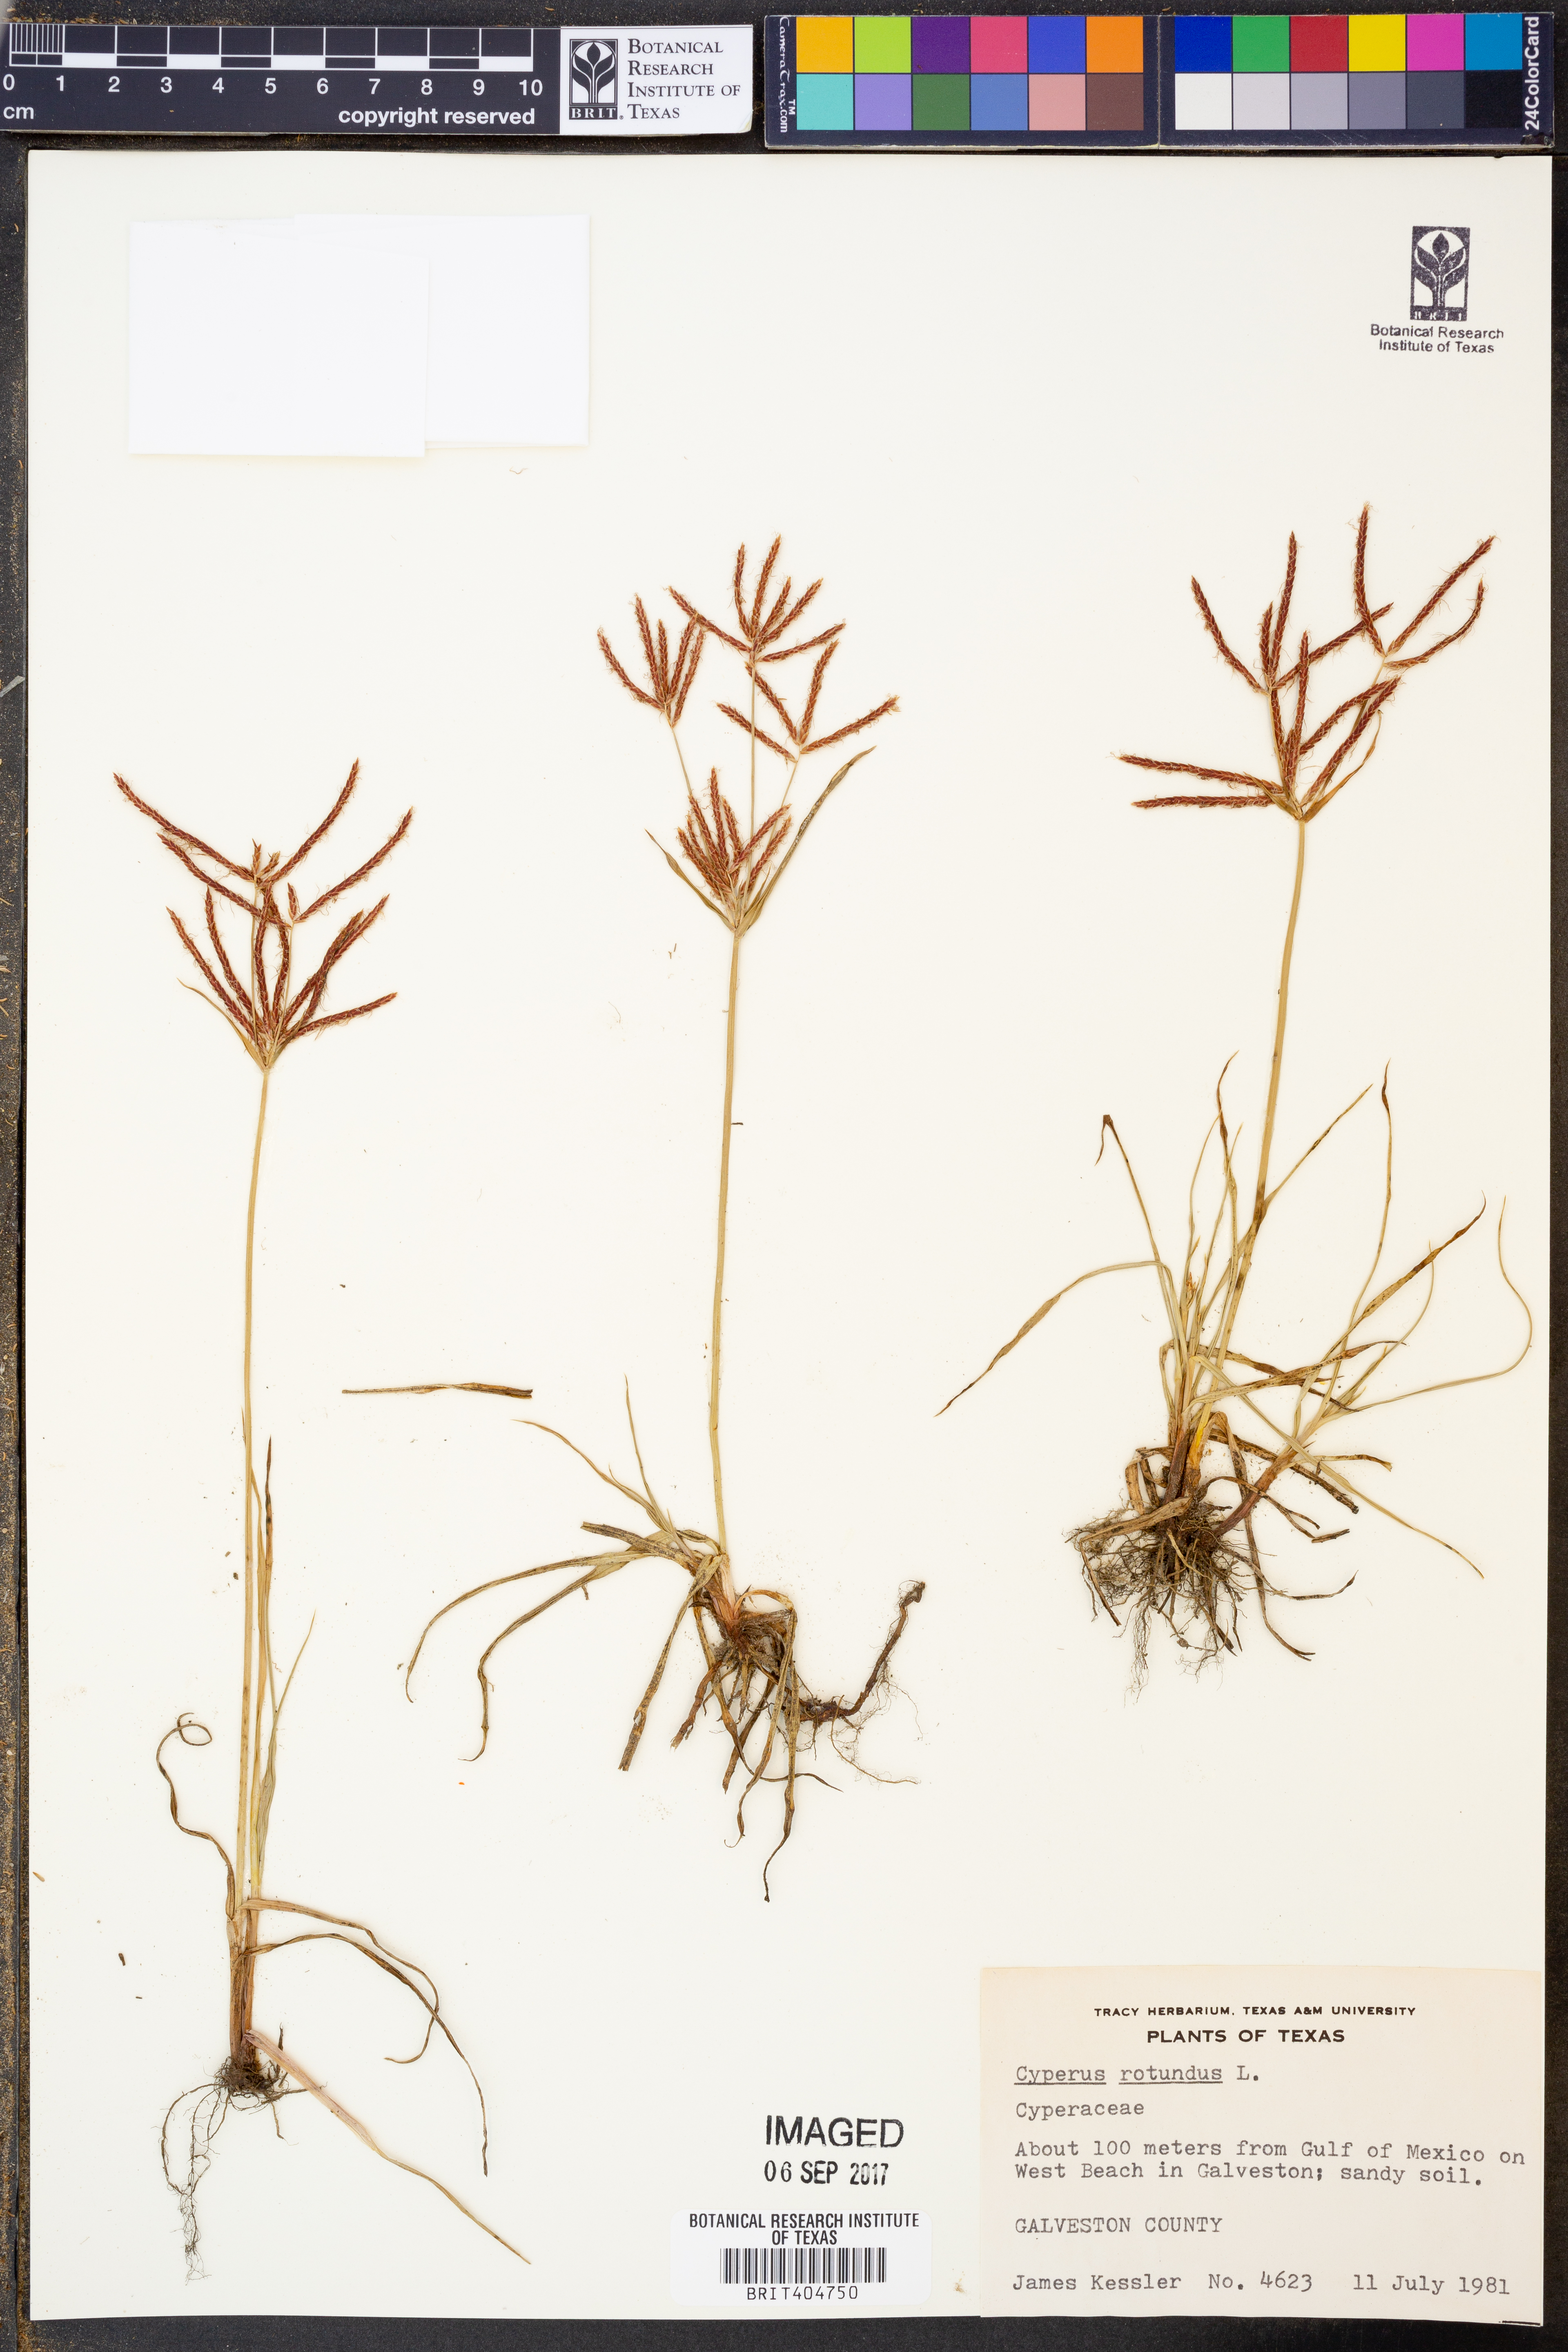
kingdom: Plantae
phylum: Tracheophyta
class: Liliopsida
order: Poales
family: Cyperaceae
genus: Cyperus
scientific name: Cyperus rotundus
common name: Nutgrass
